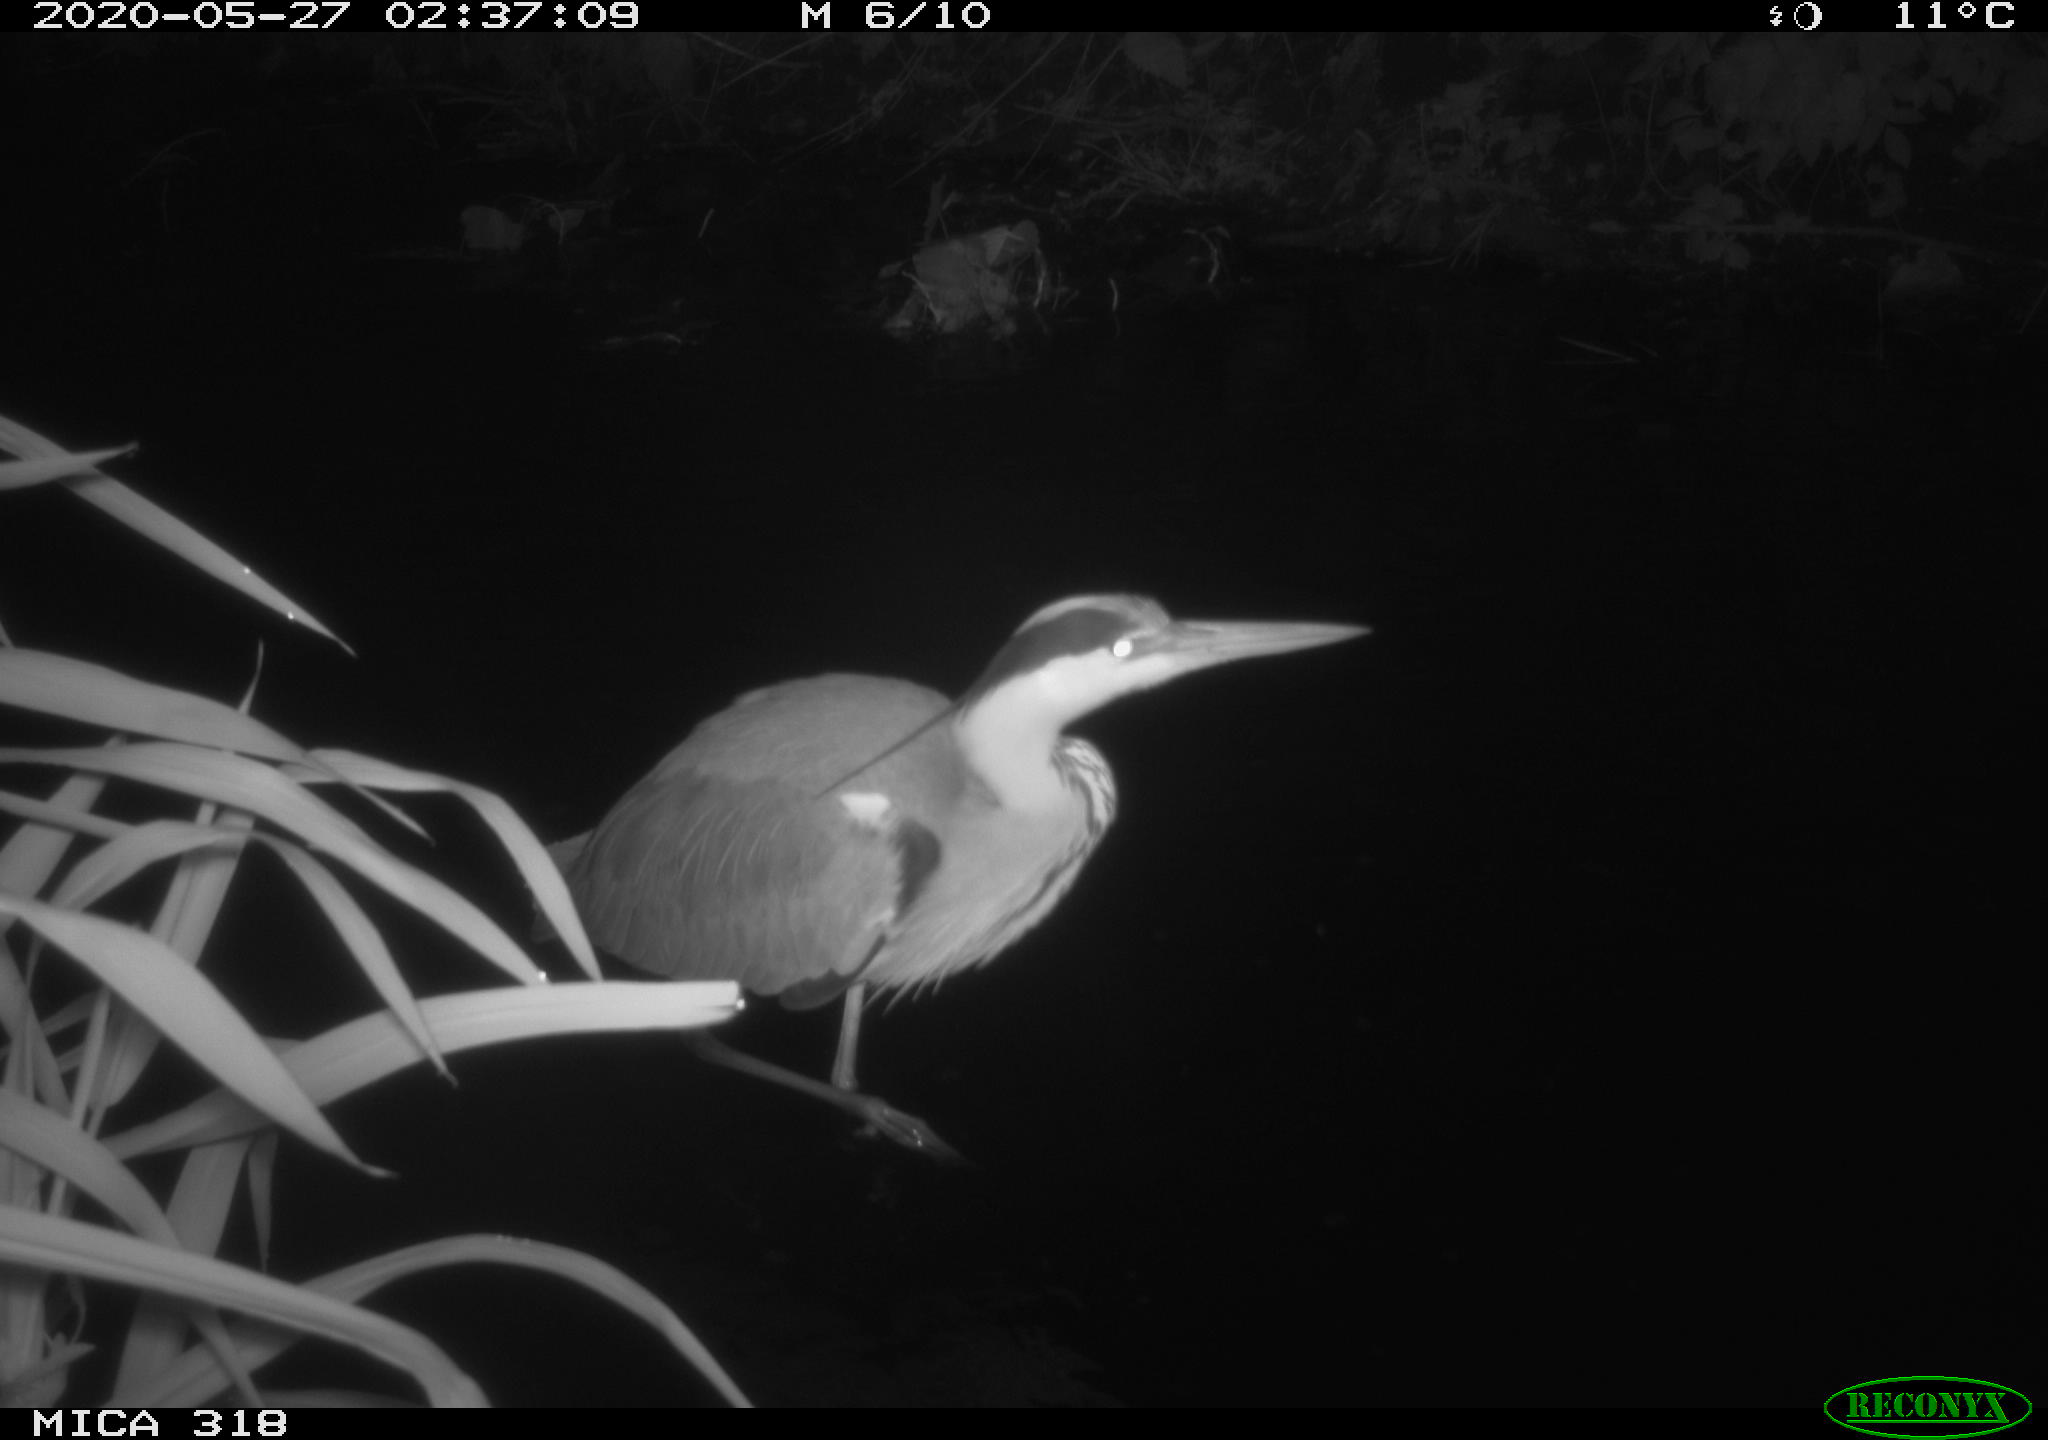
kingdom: Animalia
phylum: Chordata
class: Aves
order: Pelecaniformes
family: Ardeidae
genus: Ardea
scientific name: Ardea cinerea
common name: Grey heron
